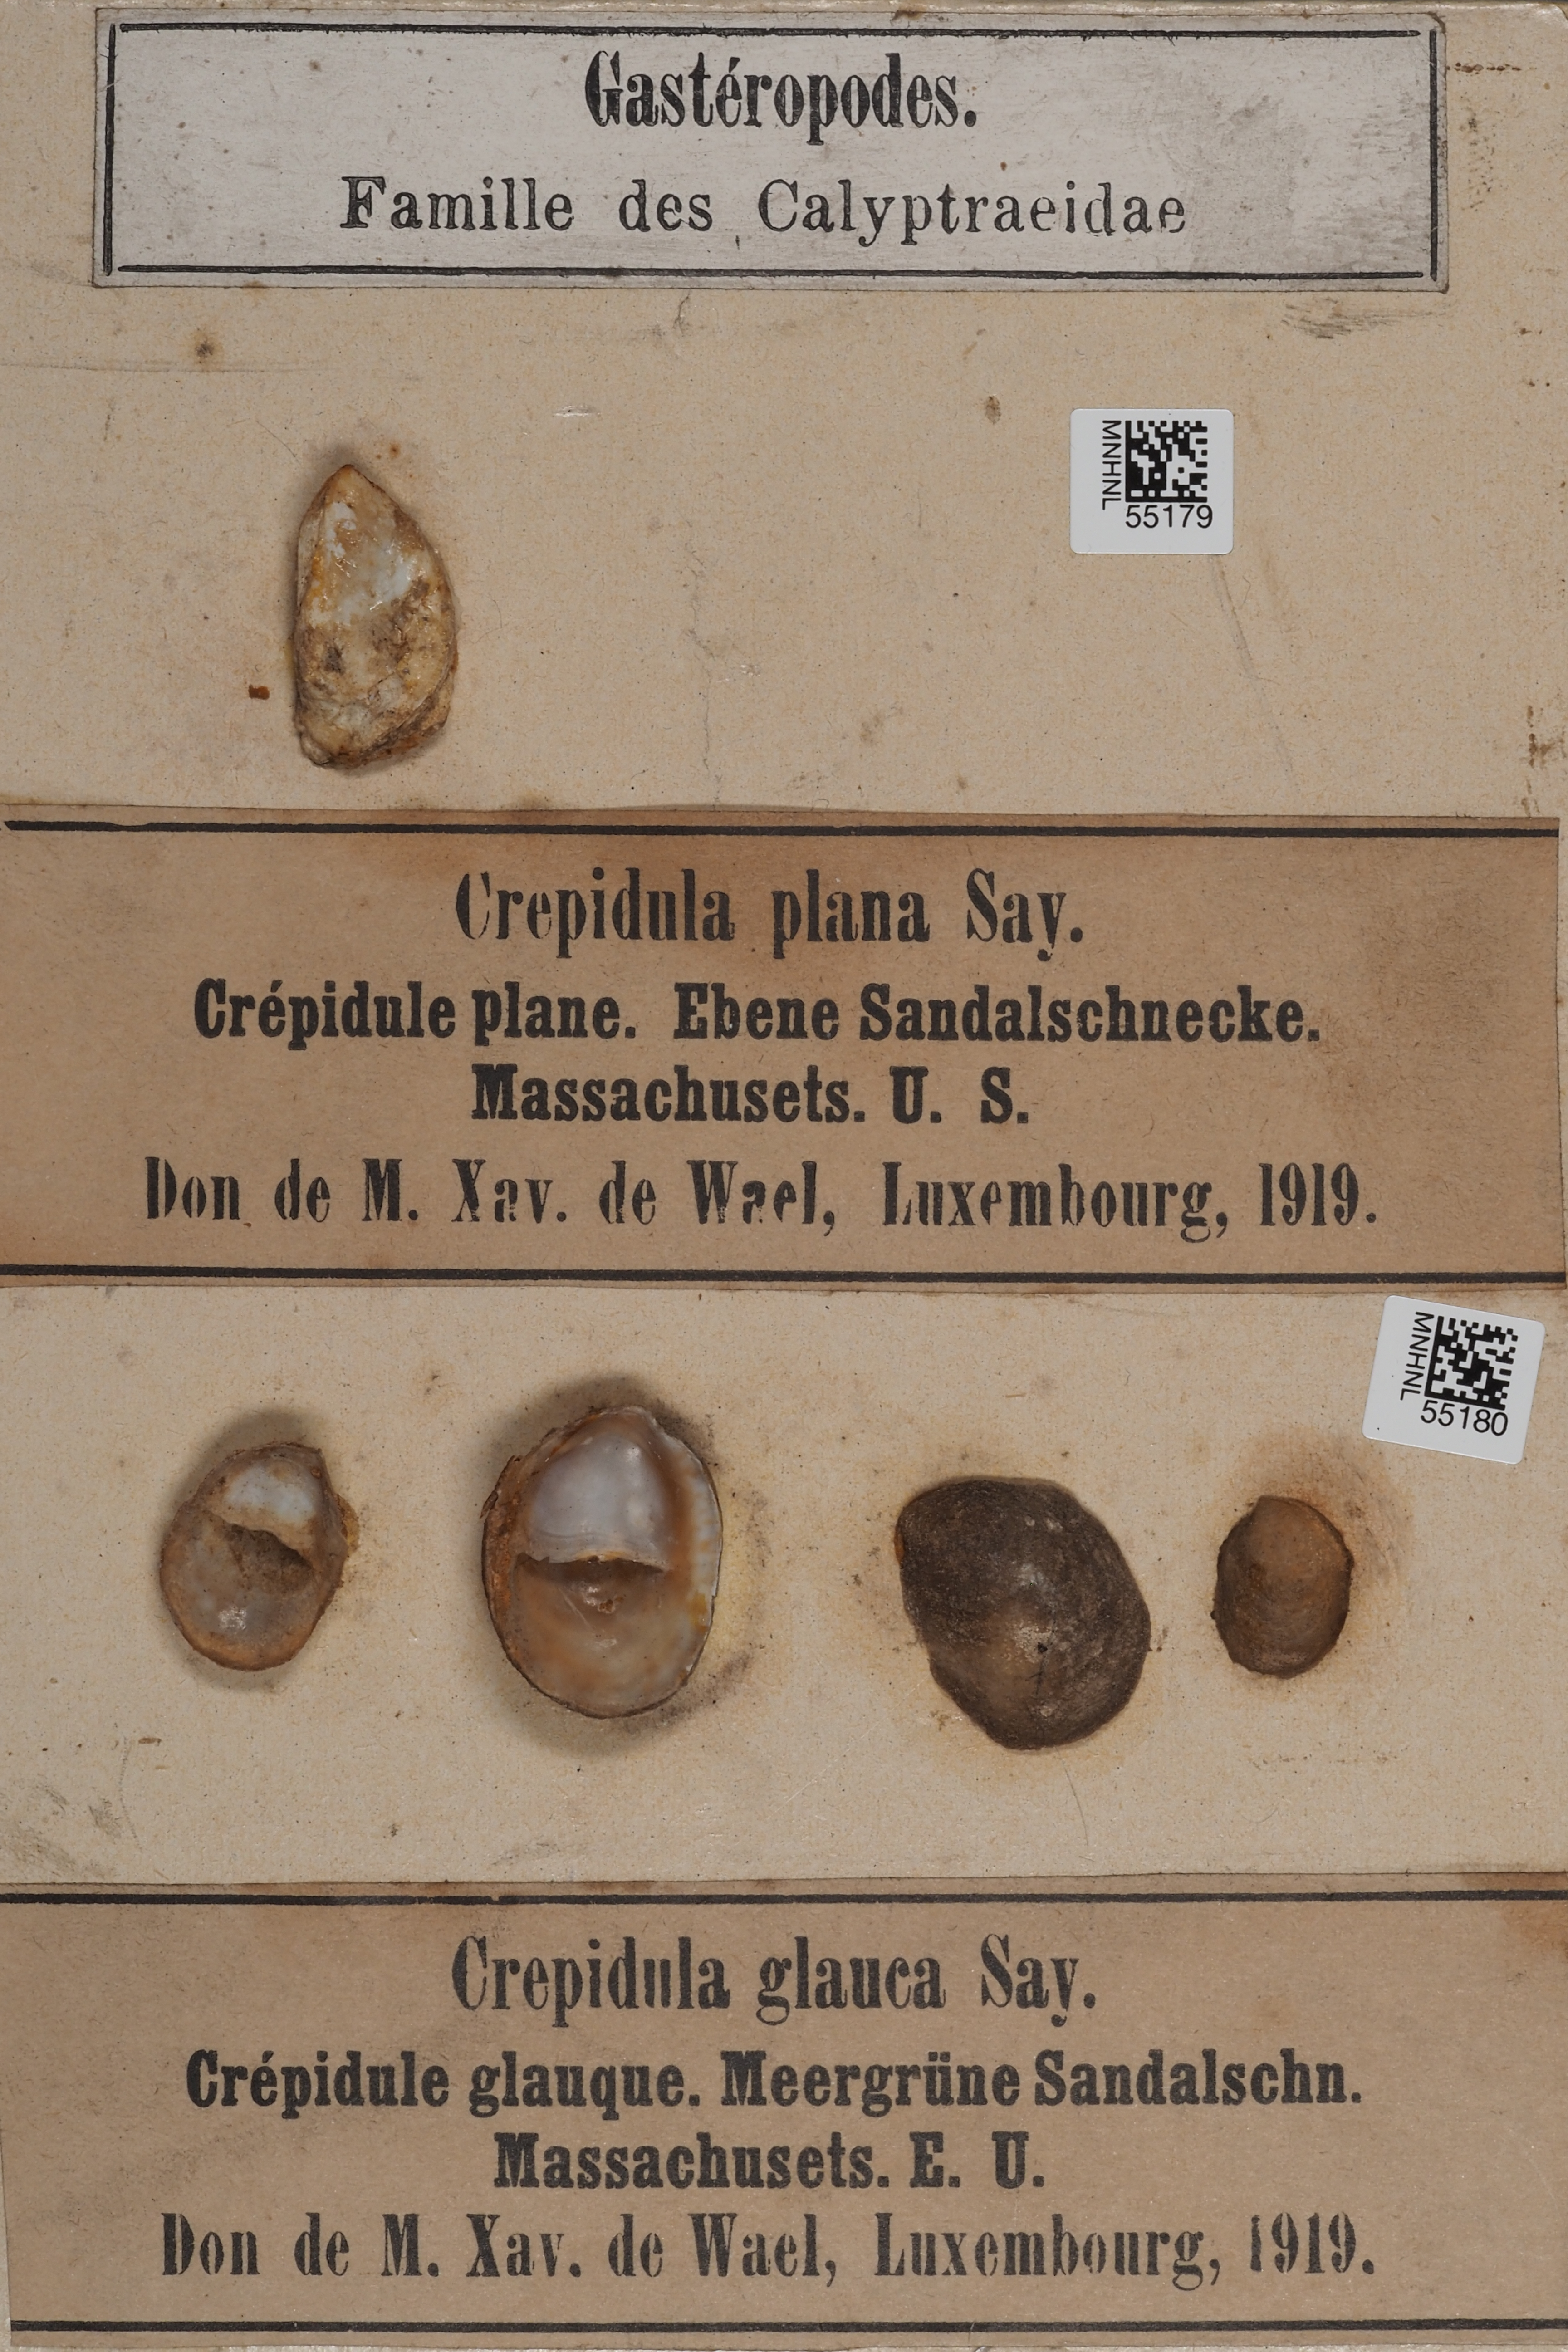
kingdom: Animalia
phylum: Mollusca
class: Gastropoda
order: Littorinimorpha
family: Calyptraeidae
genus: Crepidula
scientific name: Crepidula plana
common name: Eastern white slippersnail
